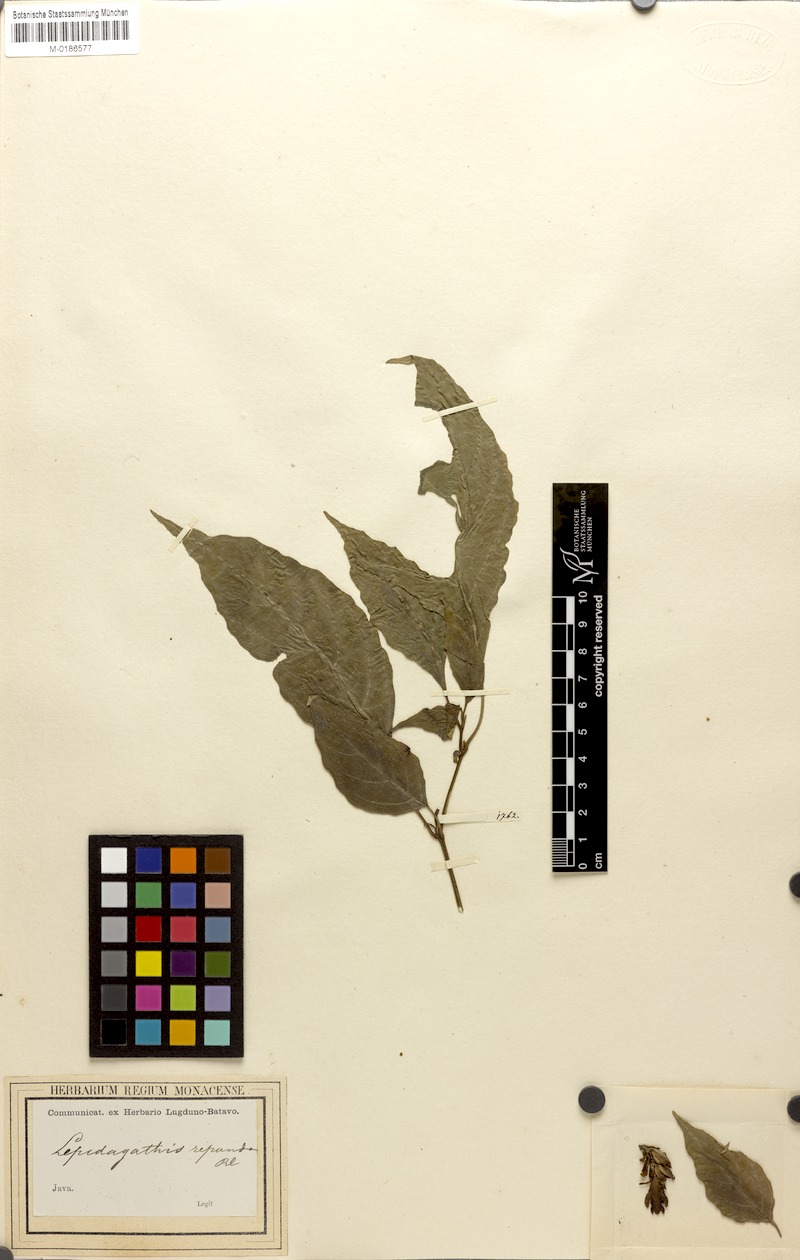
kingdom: Plantae
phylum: Tracheophyta
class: Magnoliopsida
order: Lamiales
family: Acanthaceae
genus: Strobilanthes
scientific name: Strobilanthes repanda
